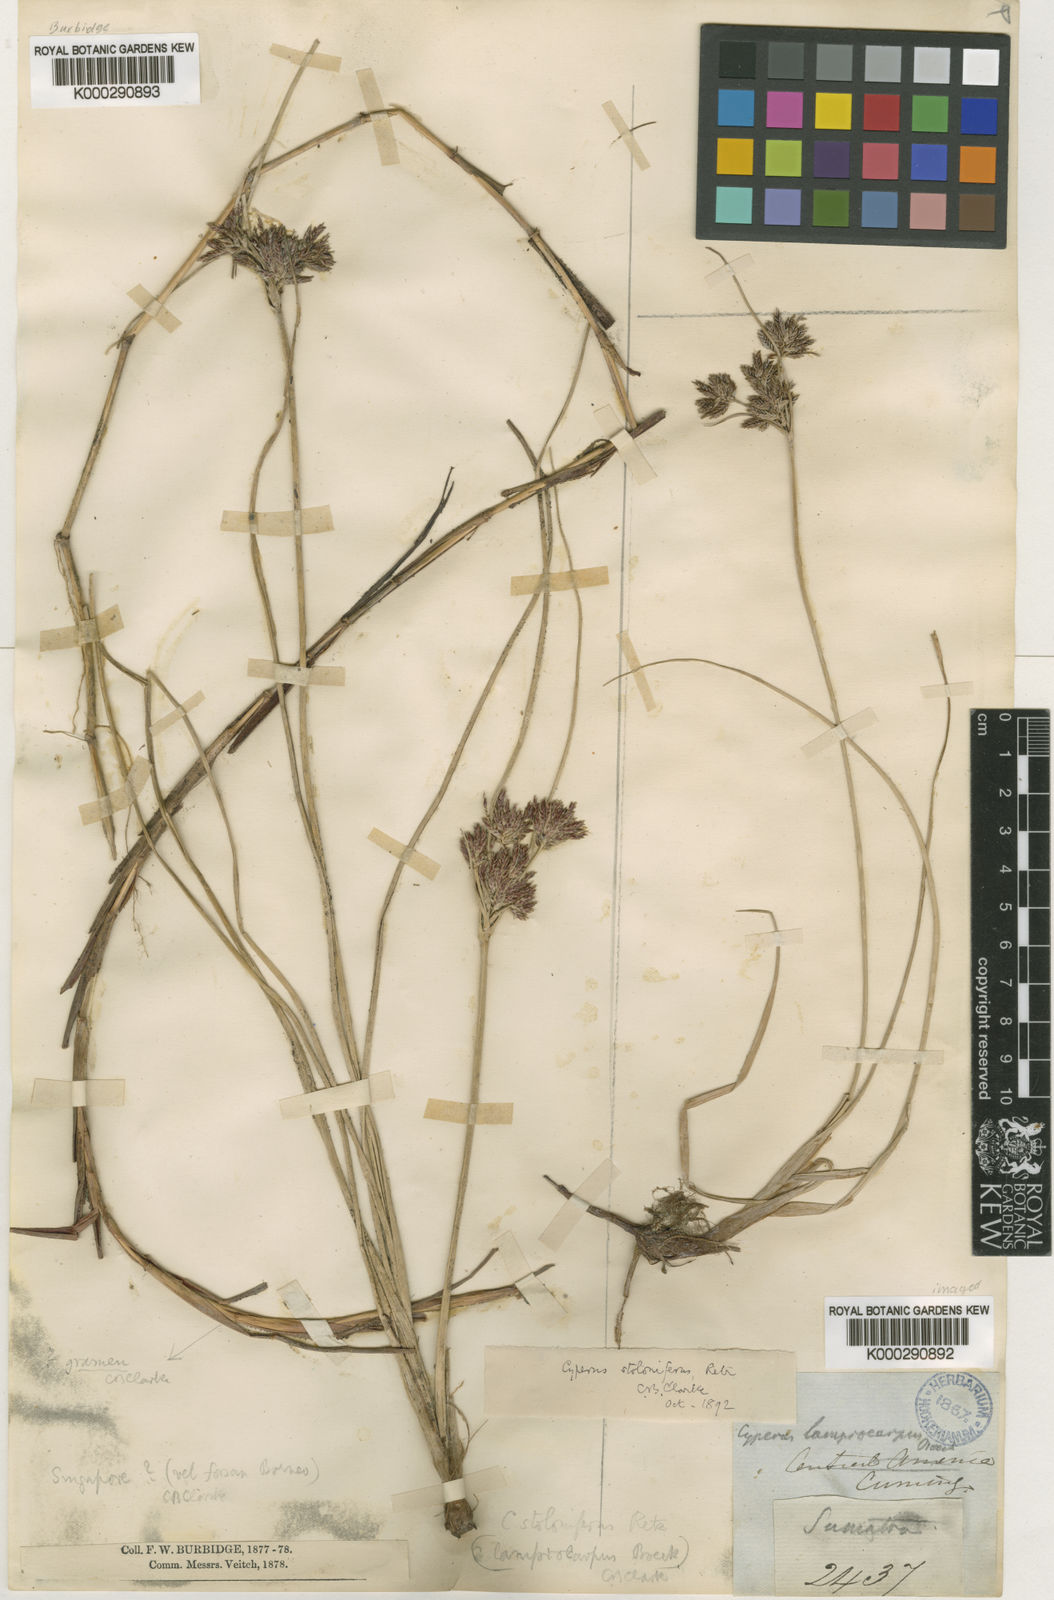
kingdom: Plantae
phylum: Tracheophyta
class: Liliopsida
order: Poales
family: Cyperaceae
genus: Cyperus
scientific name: Cyperus
